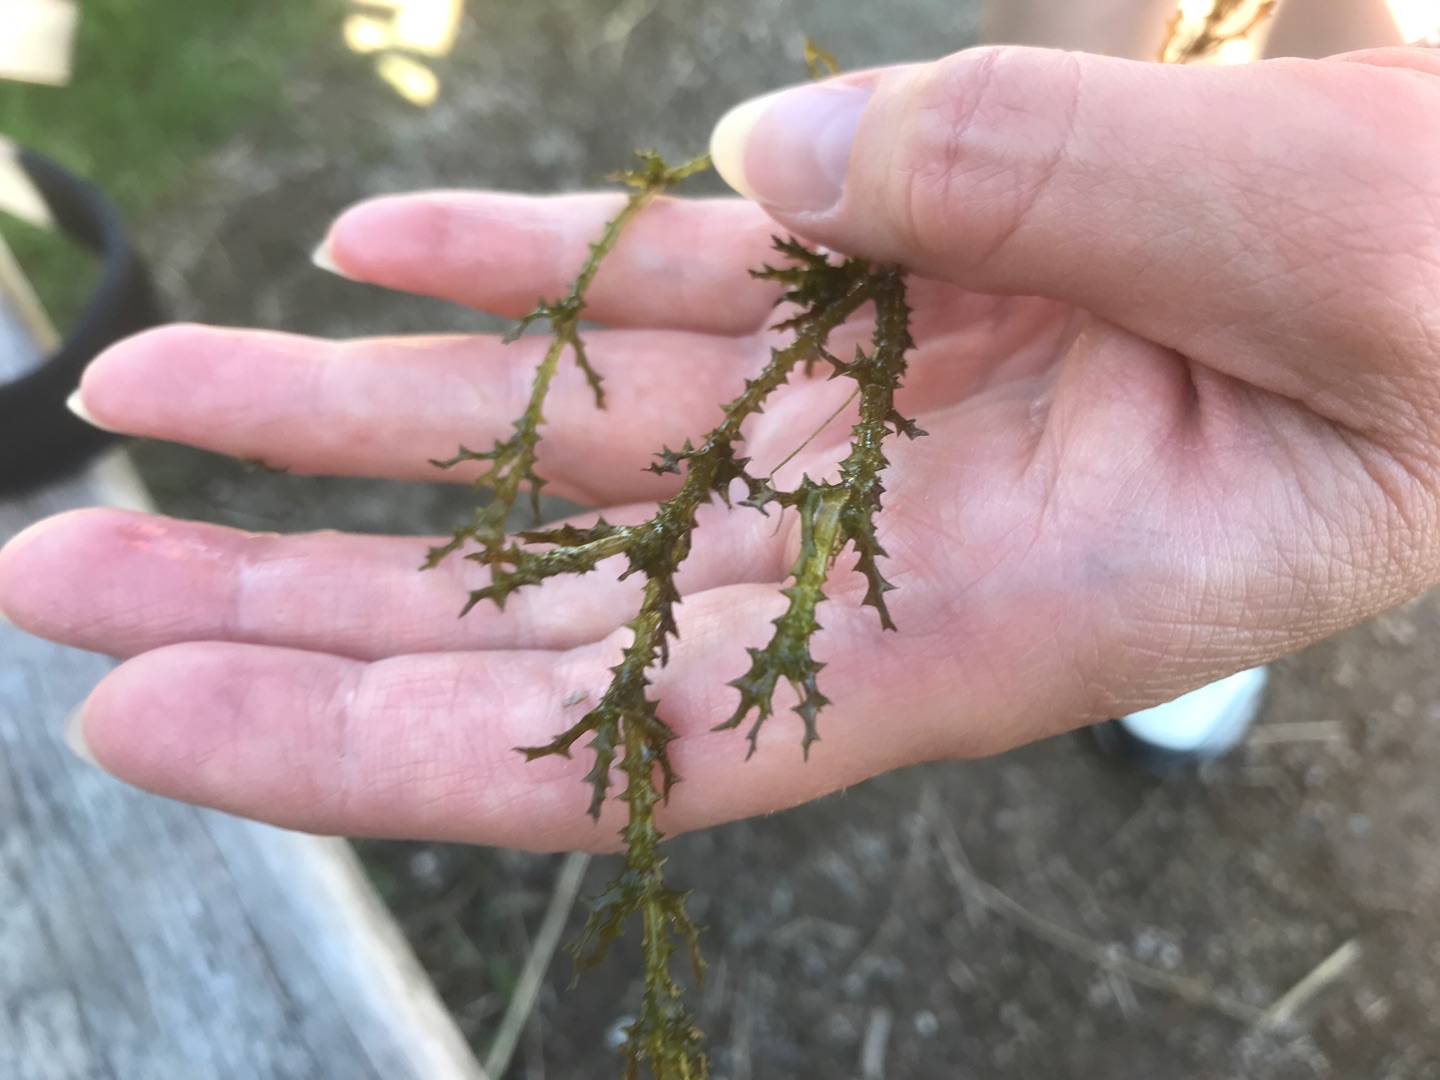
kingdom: Plantae
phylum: Tracheophyta
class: Liliopsida
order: Alismatales
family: Hydrocharitaceae
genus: Najas
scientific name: Najas marina
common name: Stor najade
